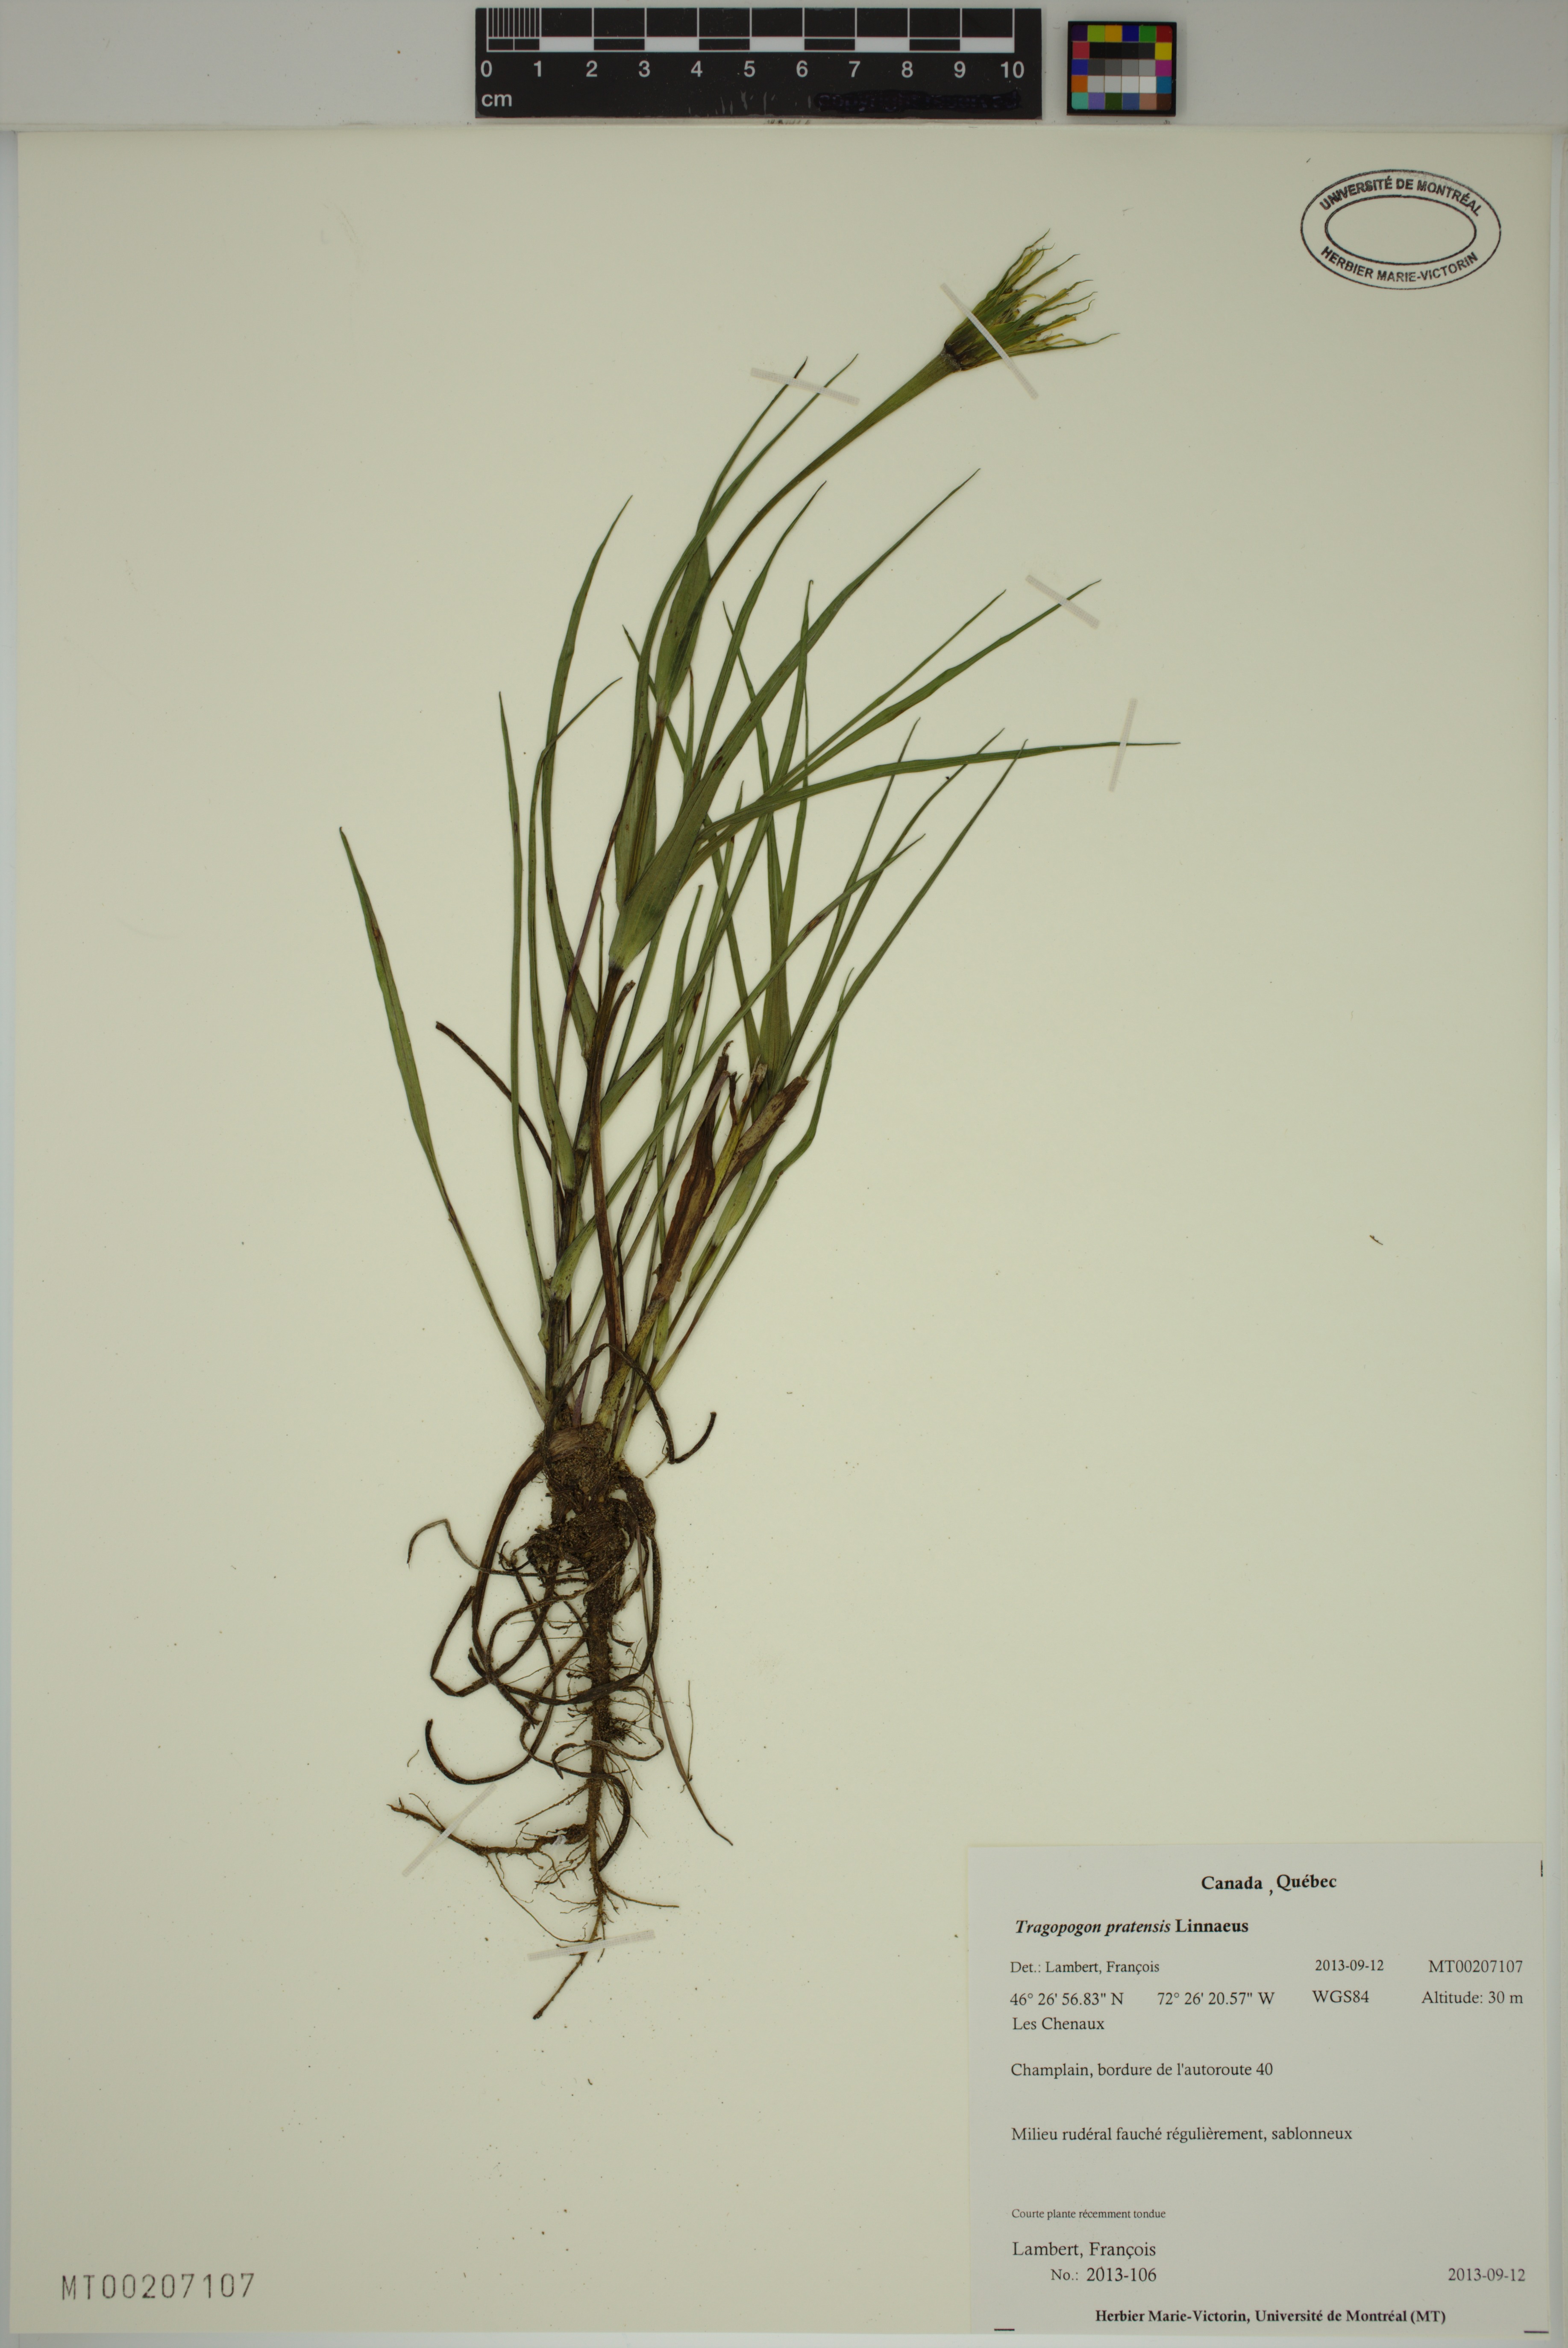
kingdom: Plantae
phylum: Tracheophyta
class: Magnoliopsida
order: Asterales
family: Asteraceae
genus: Tragopogon
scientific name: Tragopogon pratensis
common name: Goat's-beard
